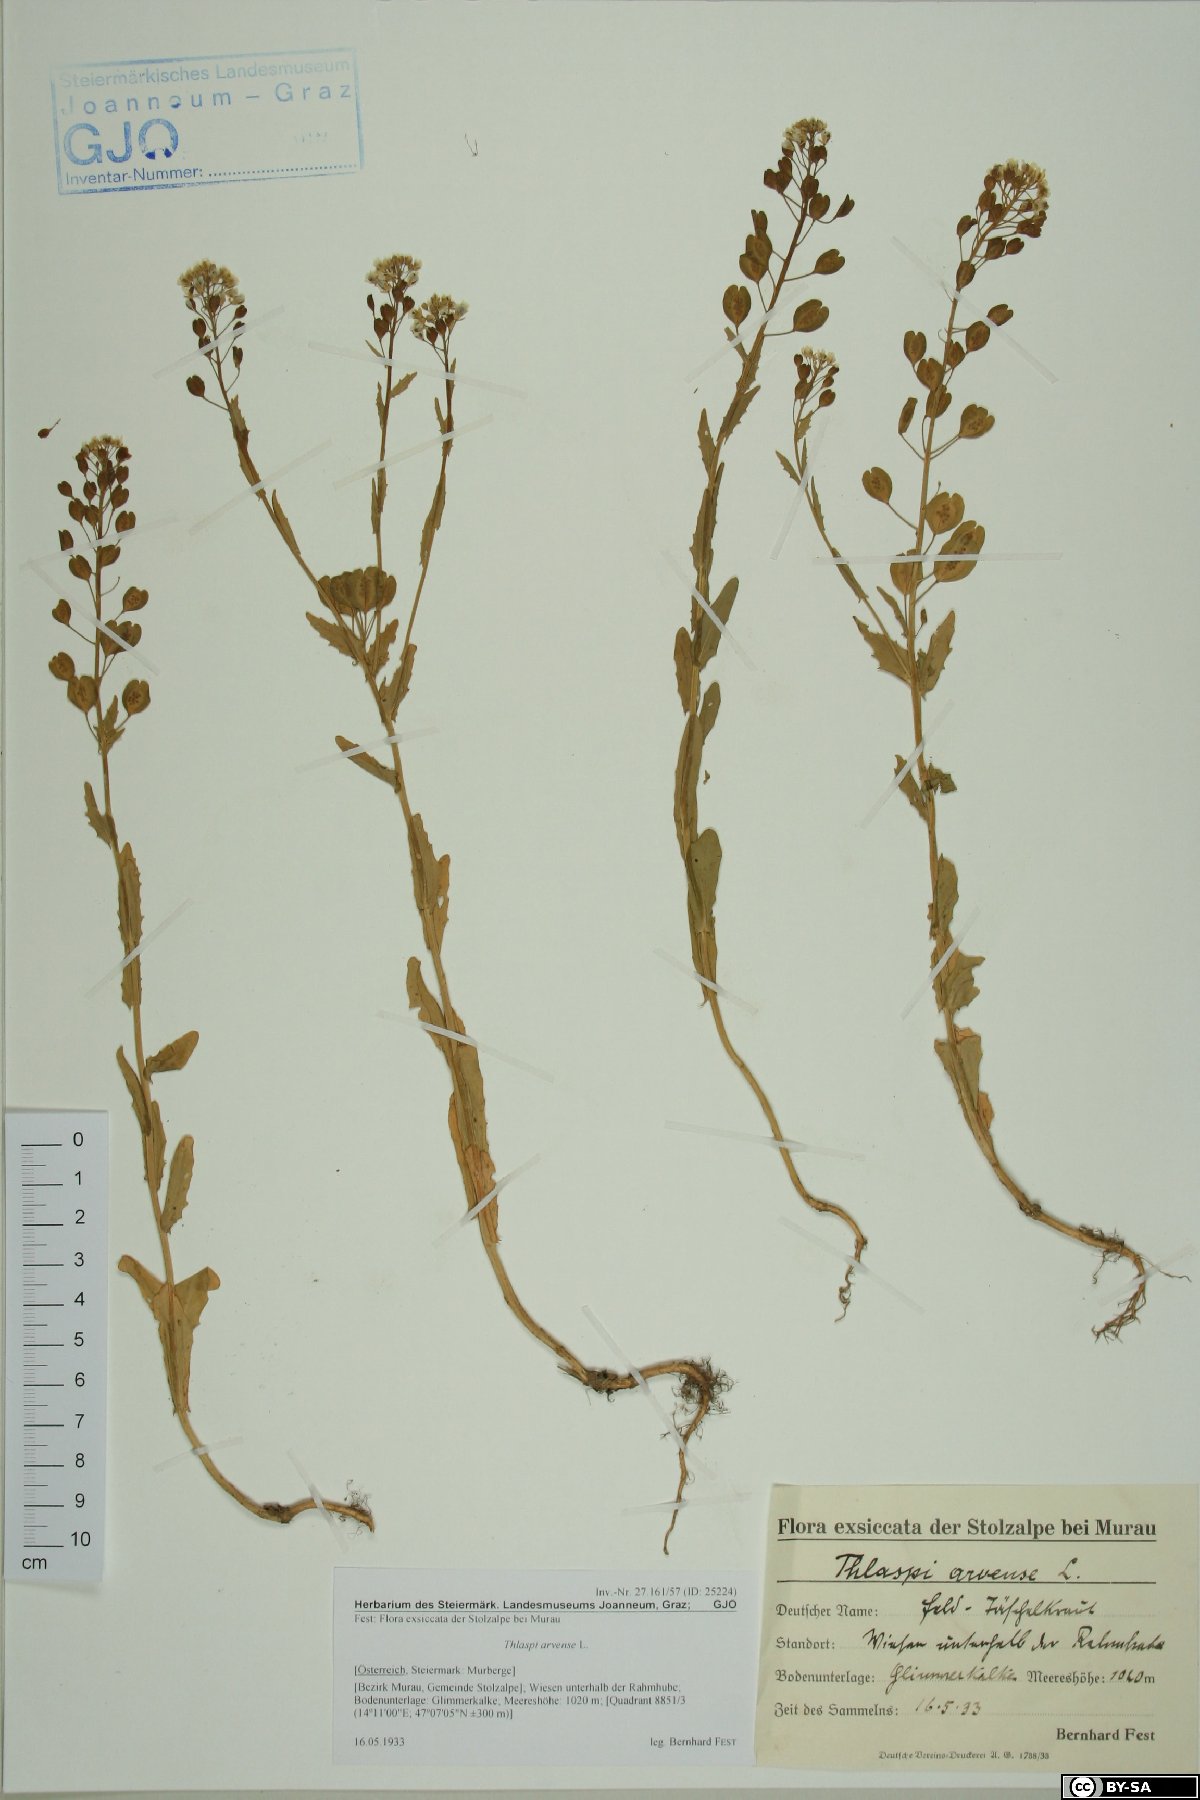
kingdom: Plantae
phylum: Tracheophyta
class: Magnoliopsida
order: Brassicales
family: Brassicaceae
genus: Thlaspi
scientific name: Thlaspi arvense
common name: Field pennycress
